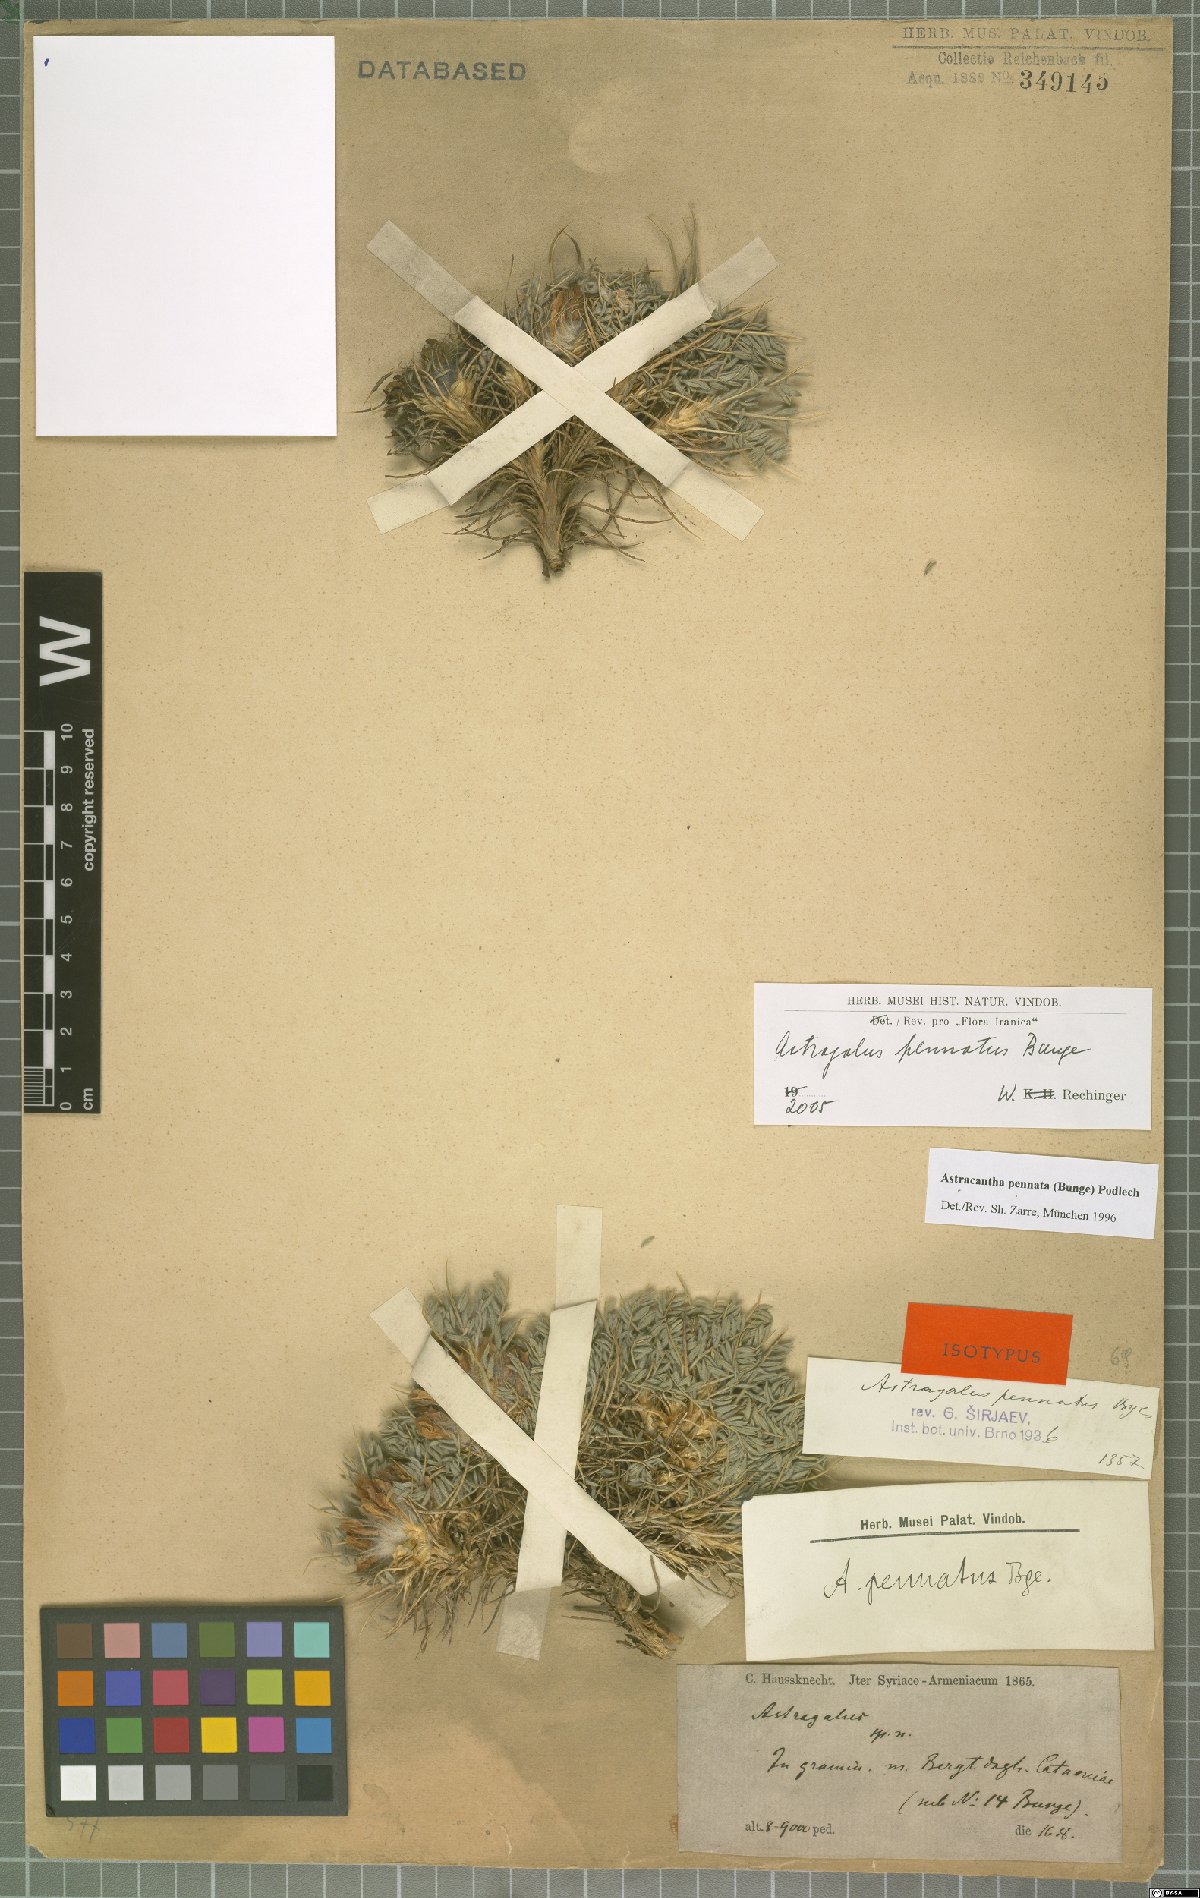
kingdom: Plantae
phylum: Tracheophyta
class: Magnoliopsida
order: Fabales
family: Fabaceae
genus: Astragalus
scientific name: Astragalus pennatus
